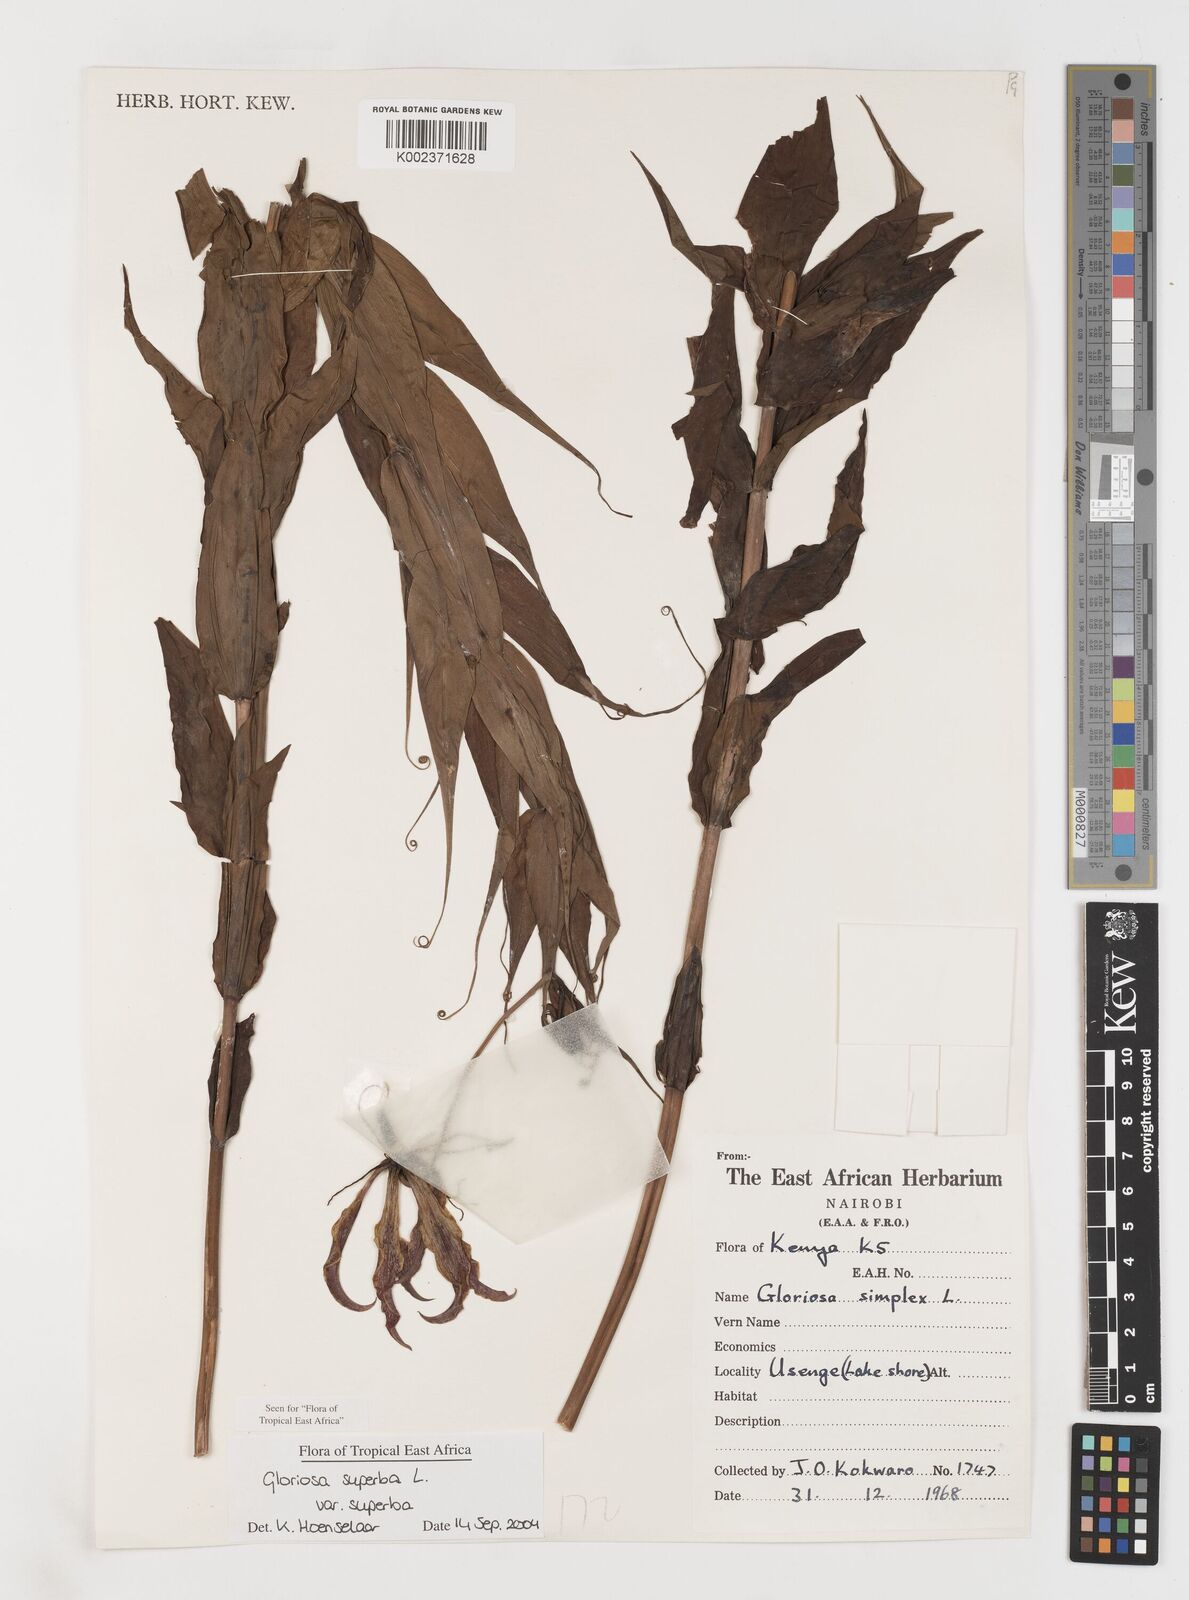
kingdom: Plantae
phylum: Tracheophyta
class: Liliopsida
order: Liliales
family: Colchicaceae
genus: Gloriosa
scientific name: Gloriosa simplex
